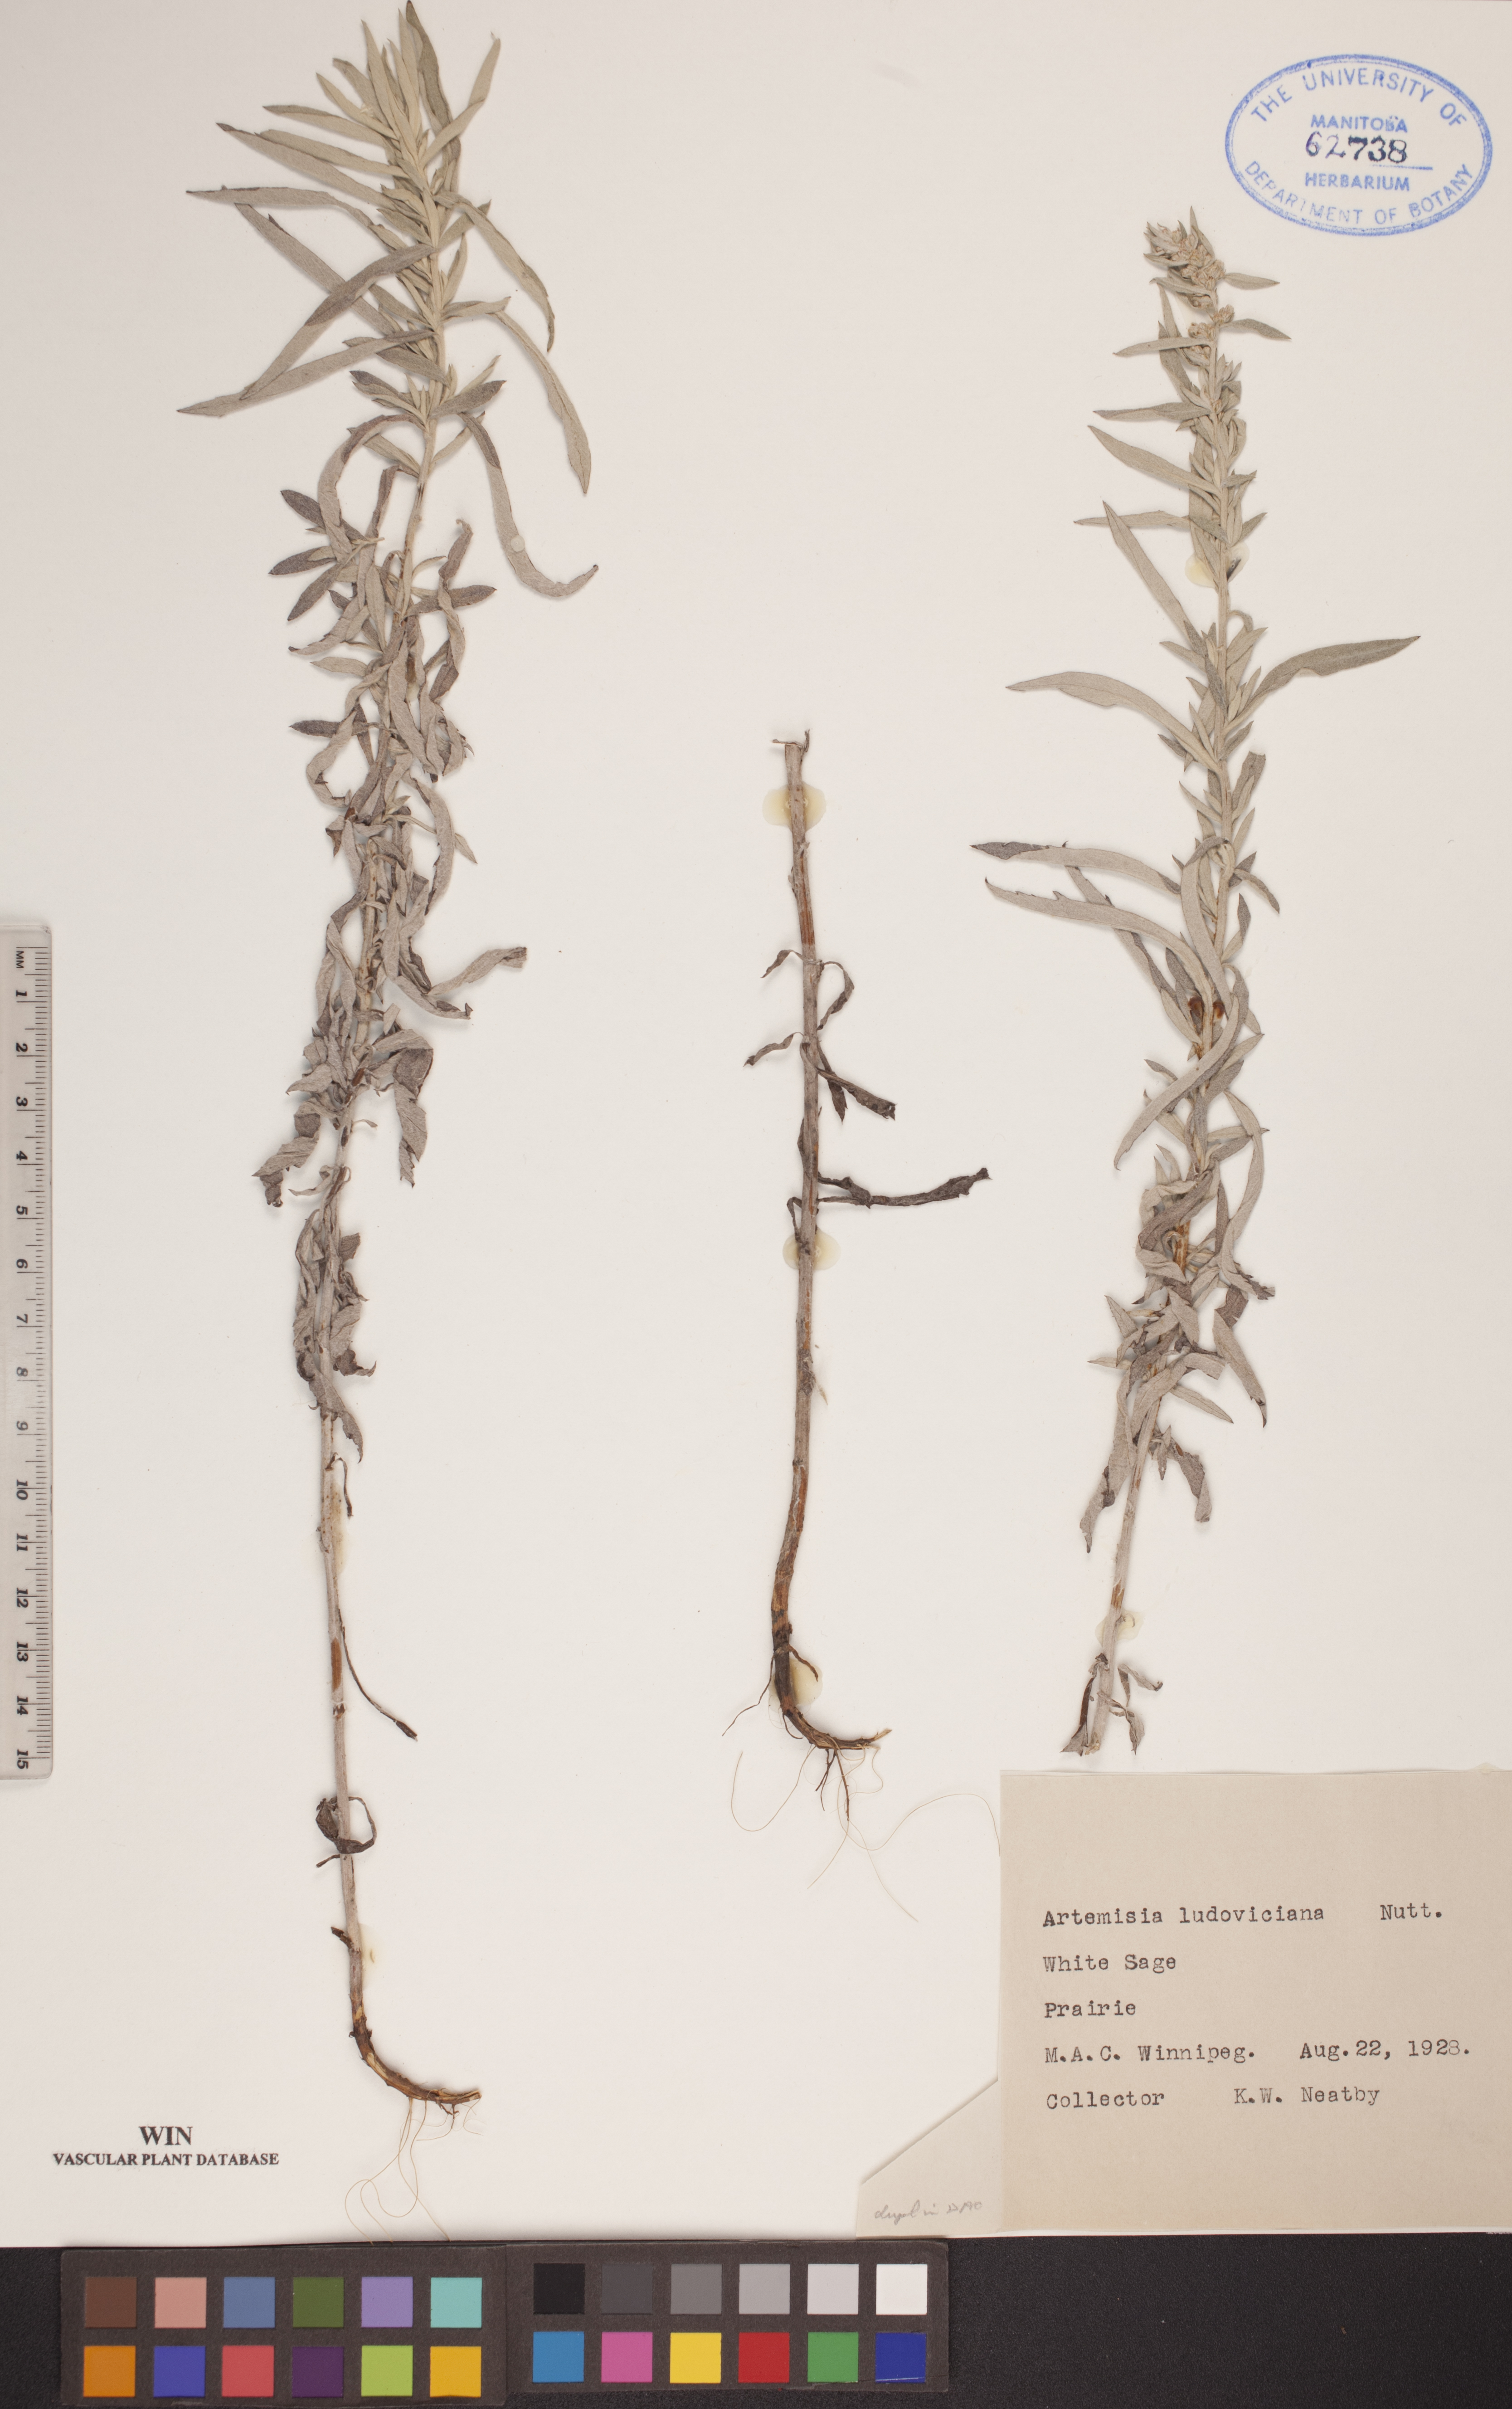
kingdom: Plantae
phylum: Tracheophyta
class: Magnoliopsida
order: Asterales
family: Asteraceae
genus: Artemisia
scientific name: Artemisia ludoviciana
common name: Western mugwort
